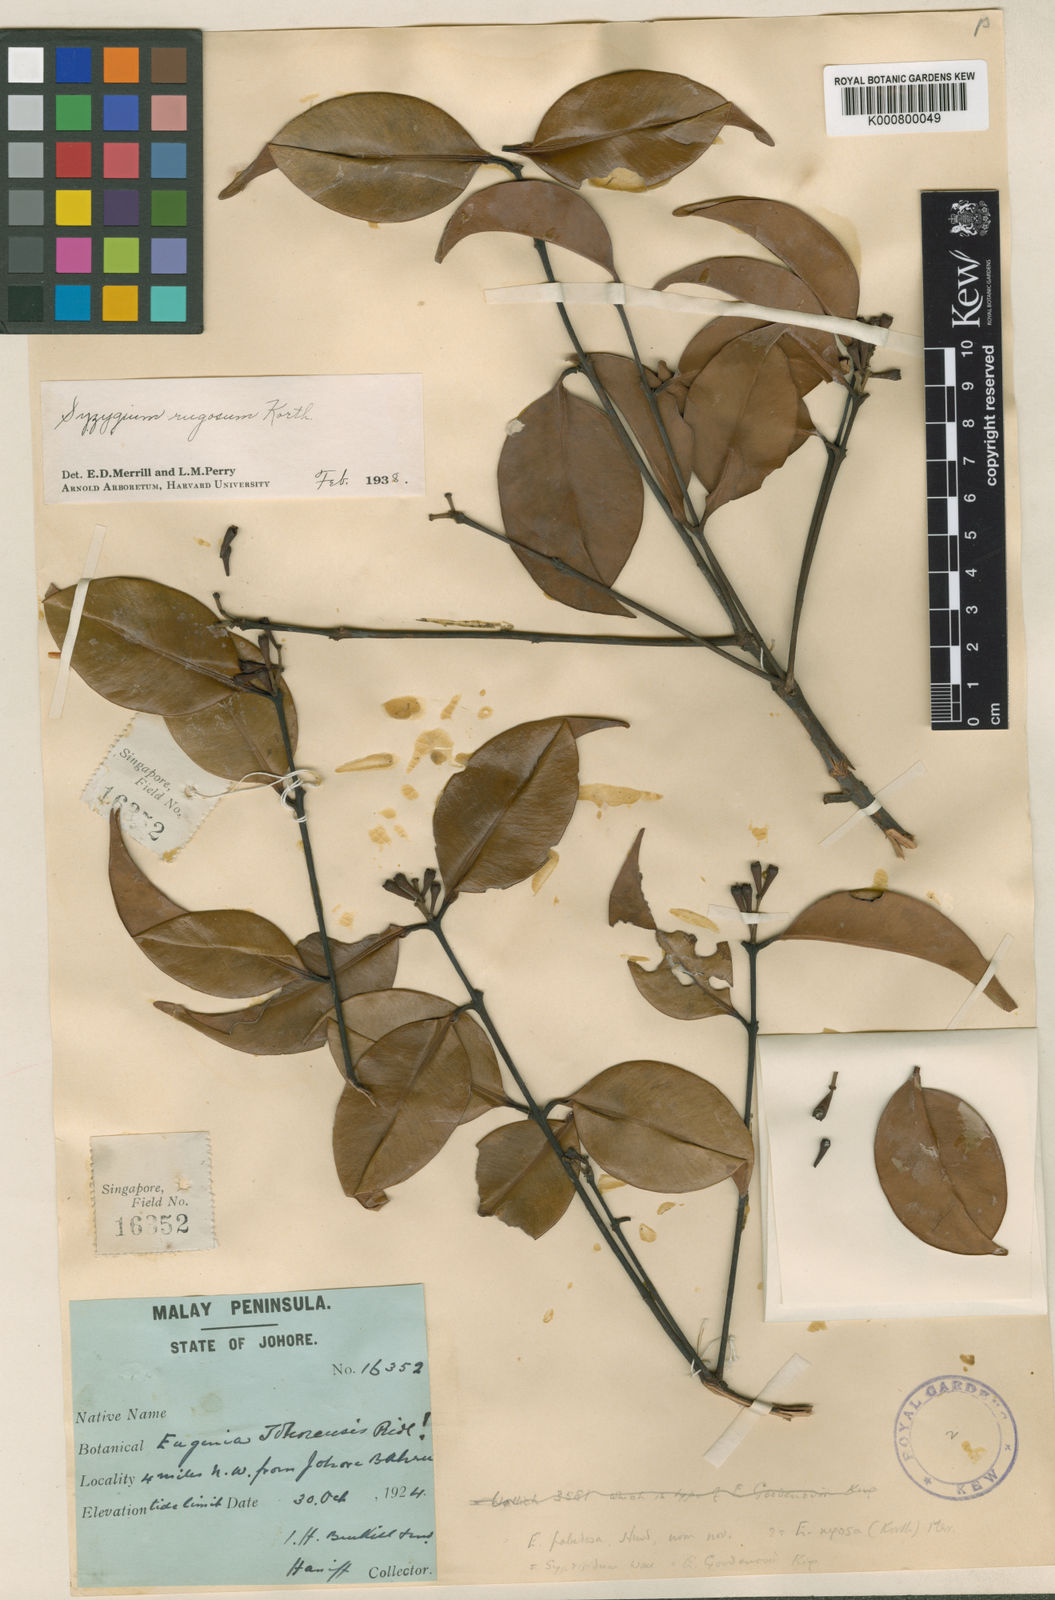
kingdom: Plantae
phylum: Tracheophyta
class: Magnoliopsida
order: Myrtales
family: Myrtaceae
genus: Syzygium
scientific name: Syzygium rugosum
